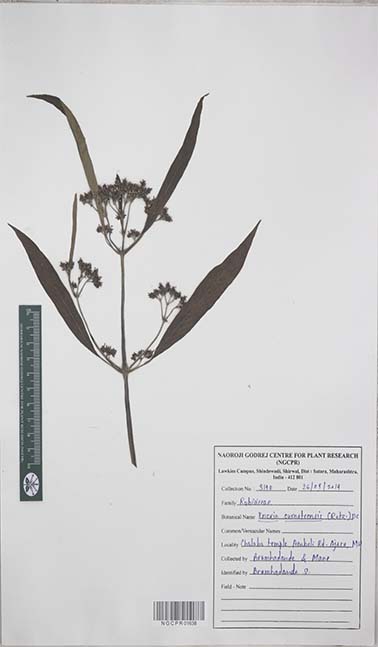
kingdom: Plantae
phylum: Tracheophyta
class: Magnoliopsida
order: Gentianales
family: Rubiaceae
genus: Knoxia
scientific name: Knoxia sumatrensis
